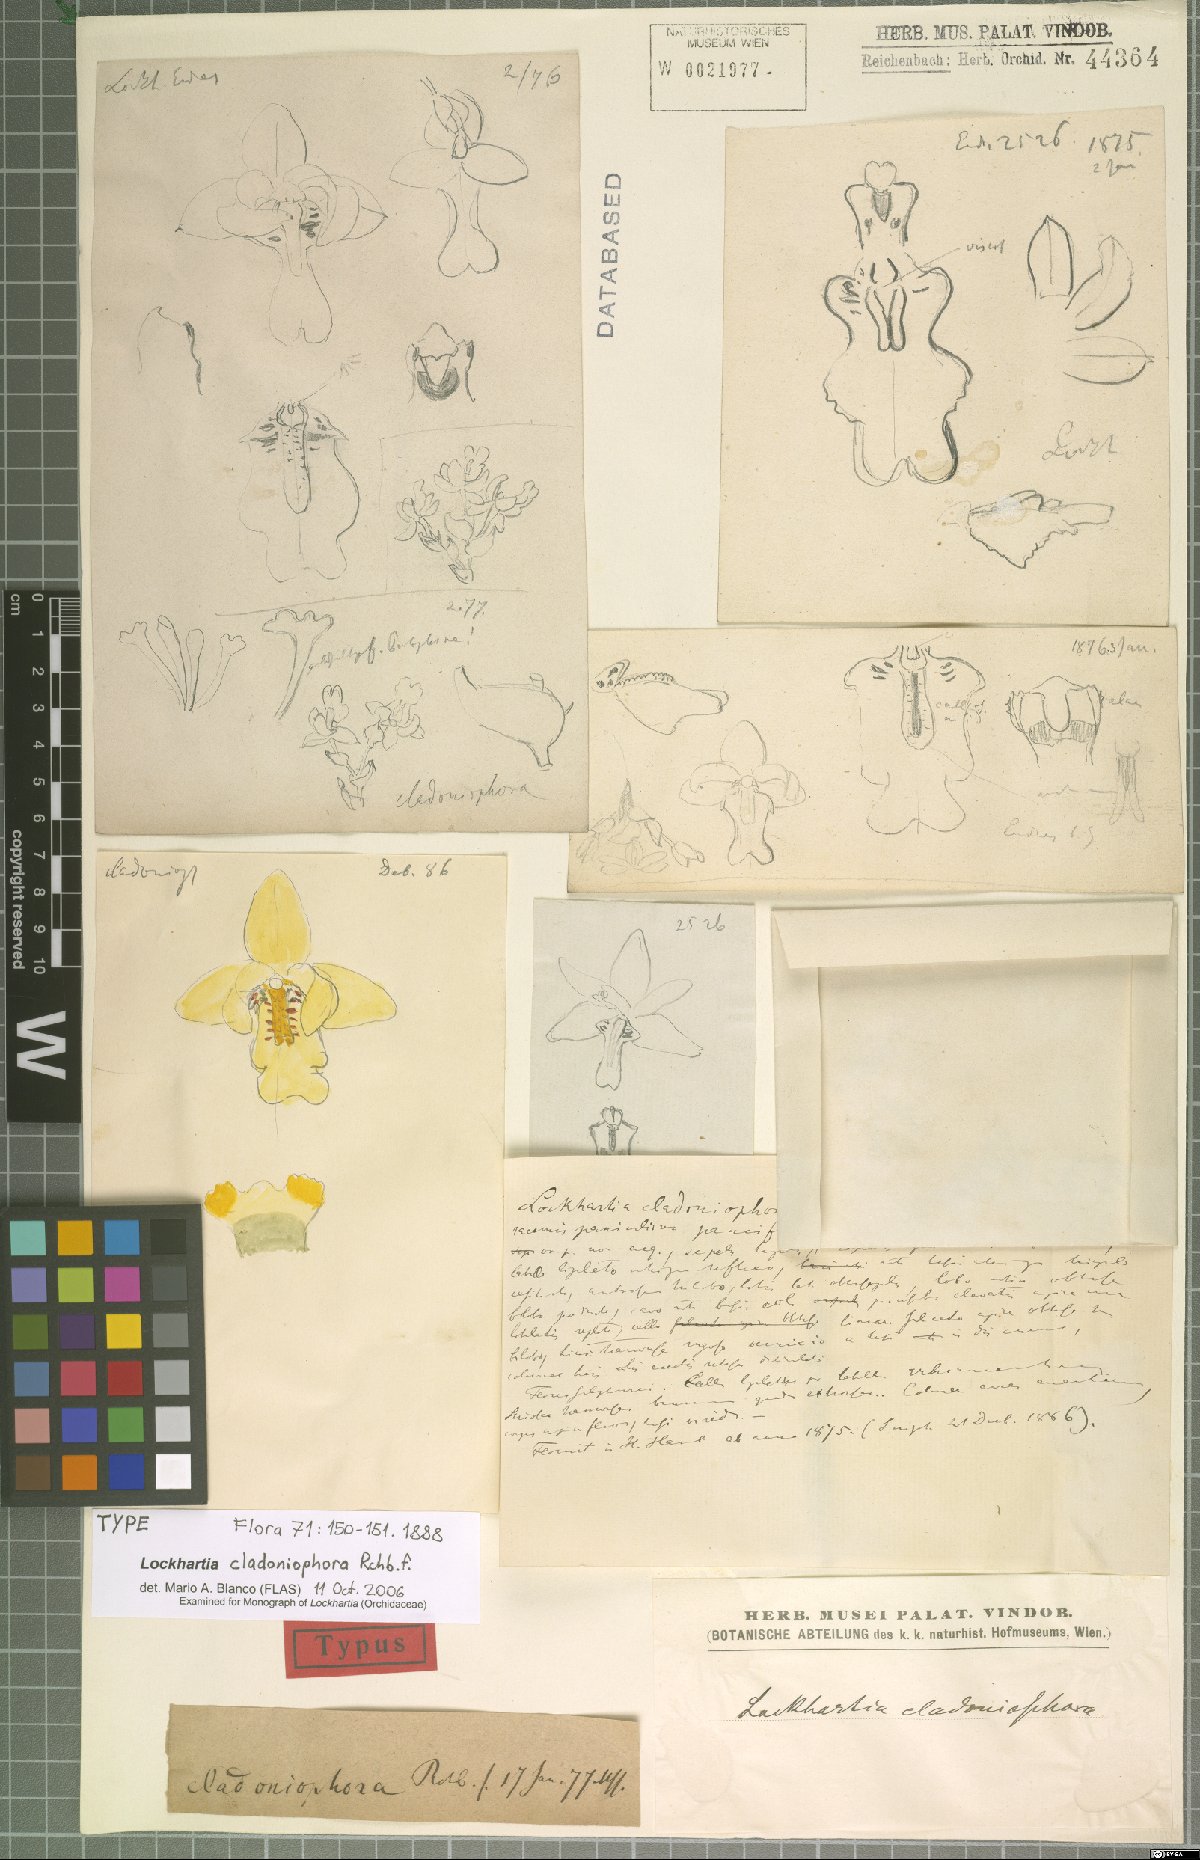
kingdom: Plantae
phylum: Tracheophyta
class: Liliopsida
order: Asparagales
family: Orchidaceae
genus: Lockhartia
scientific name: Lockhartia cladoniophora
